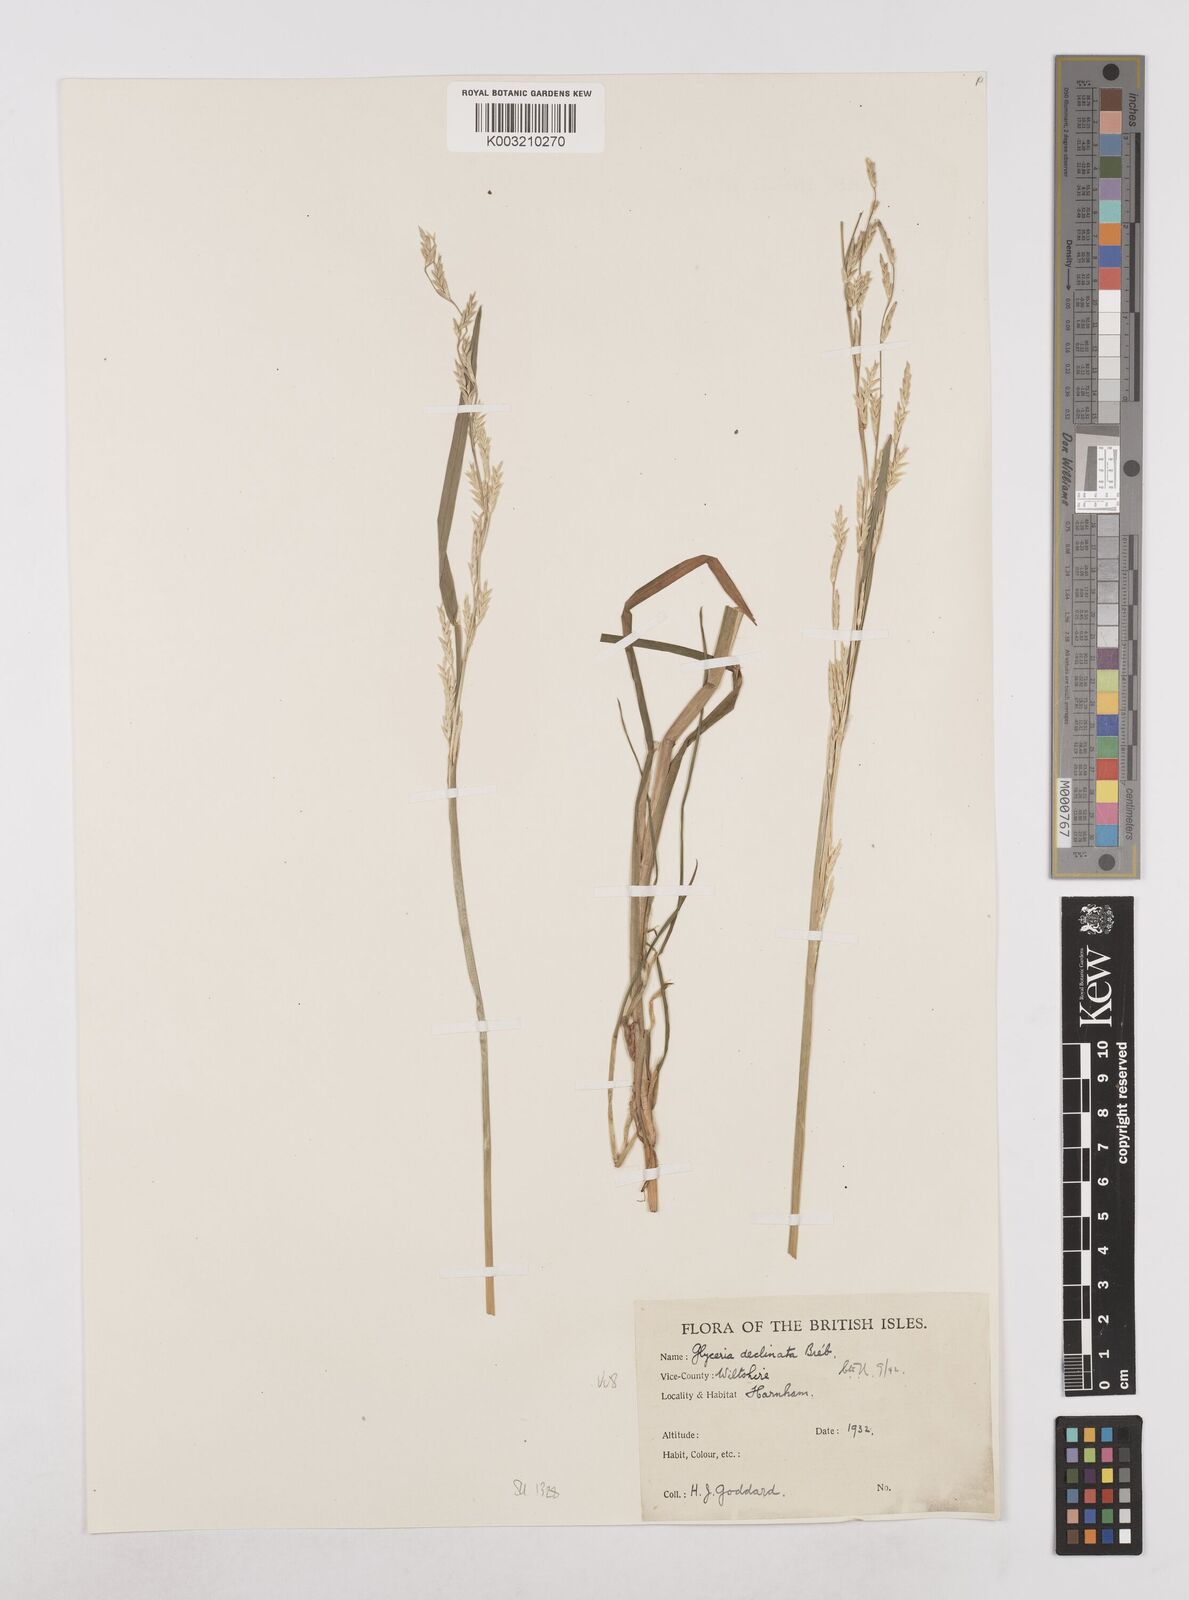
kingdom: Plantae
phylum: Tracheophyta
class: Liliopsida
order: Poales
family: Poaceae
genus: Glyceria
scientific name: Glyceria declinata
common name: Small sweet-grass
